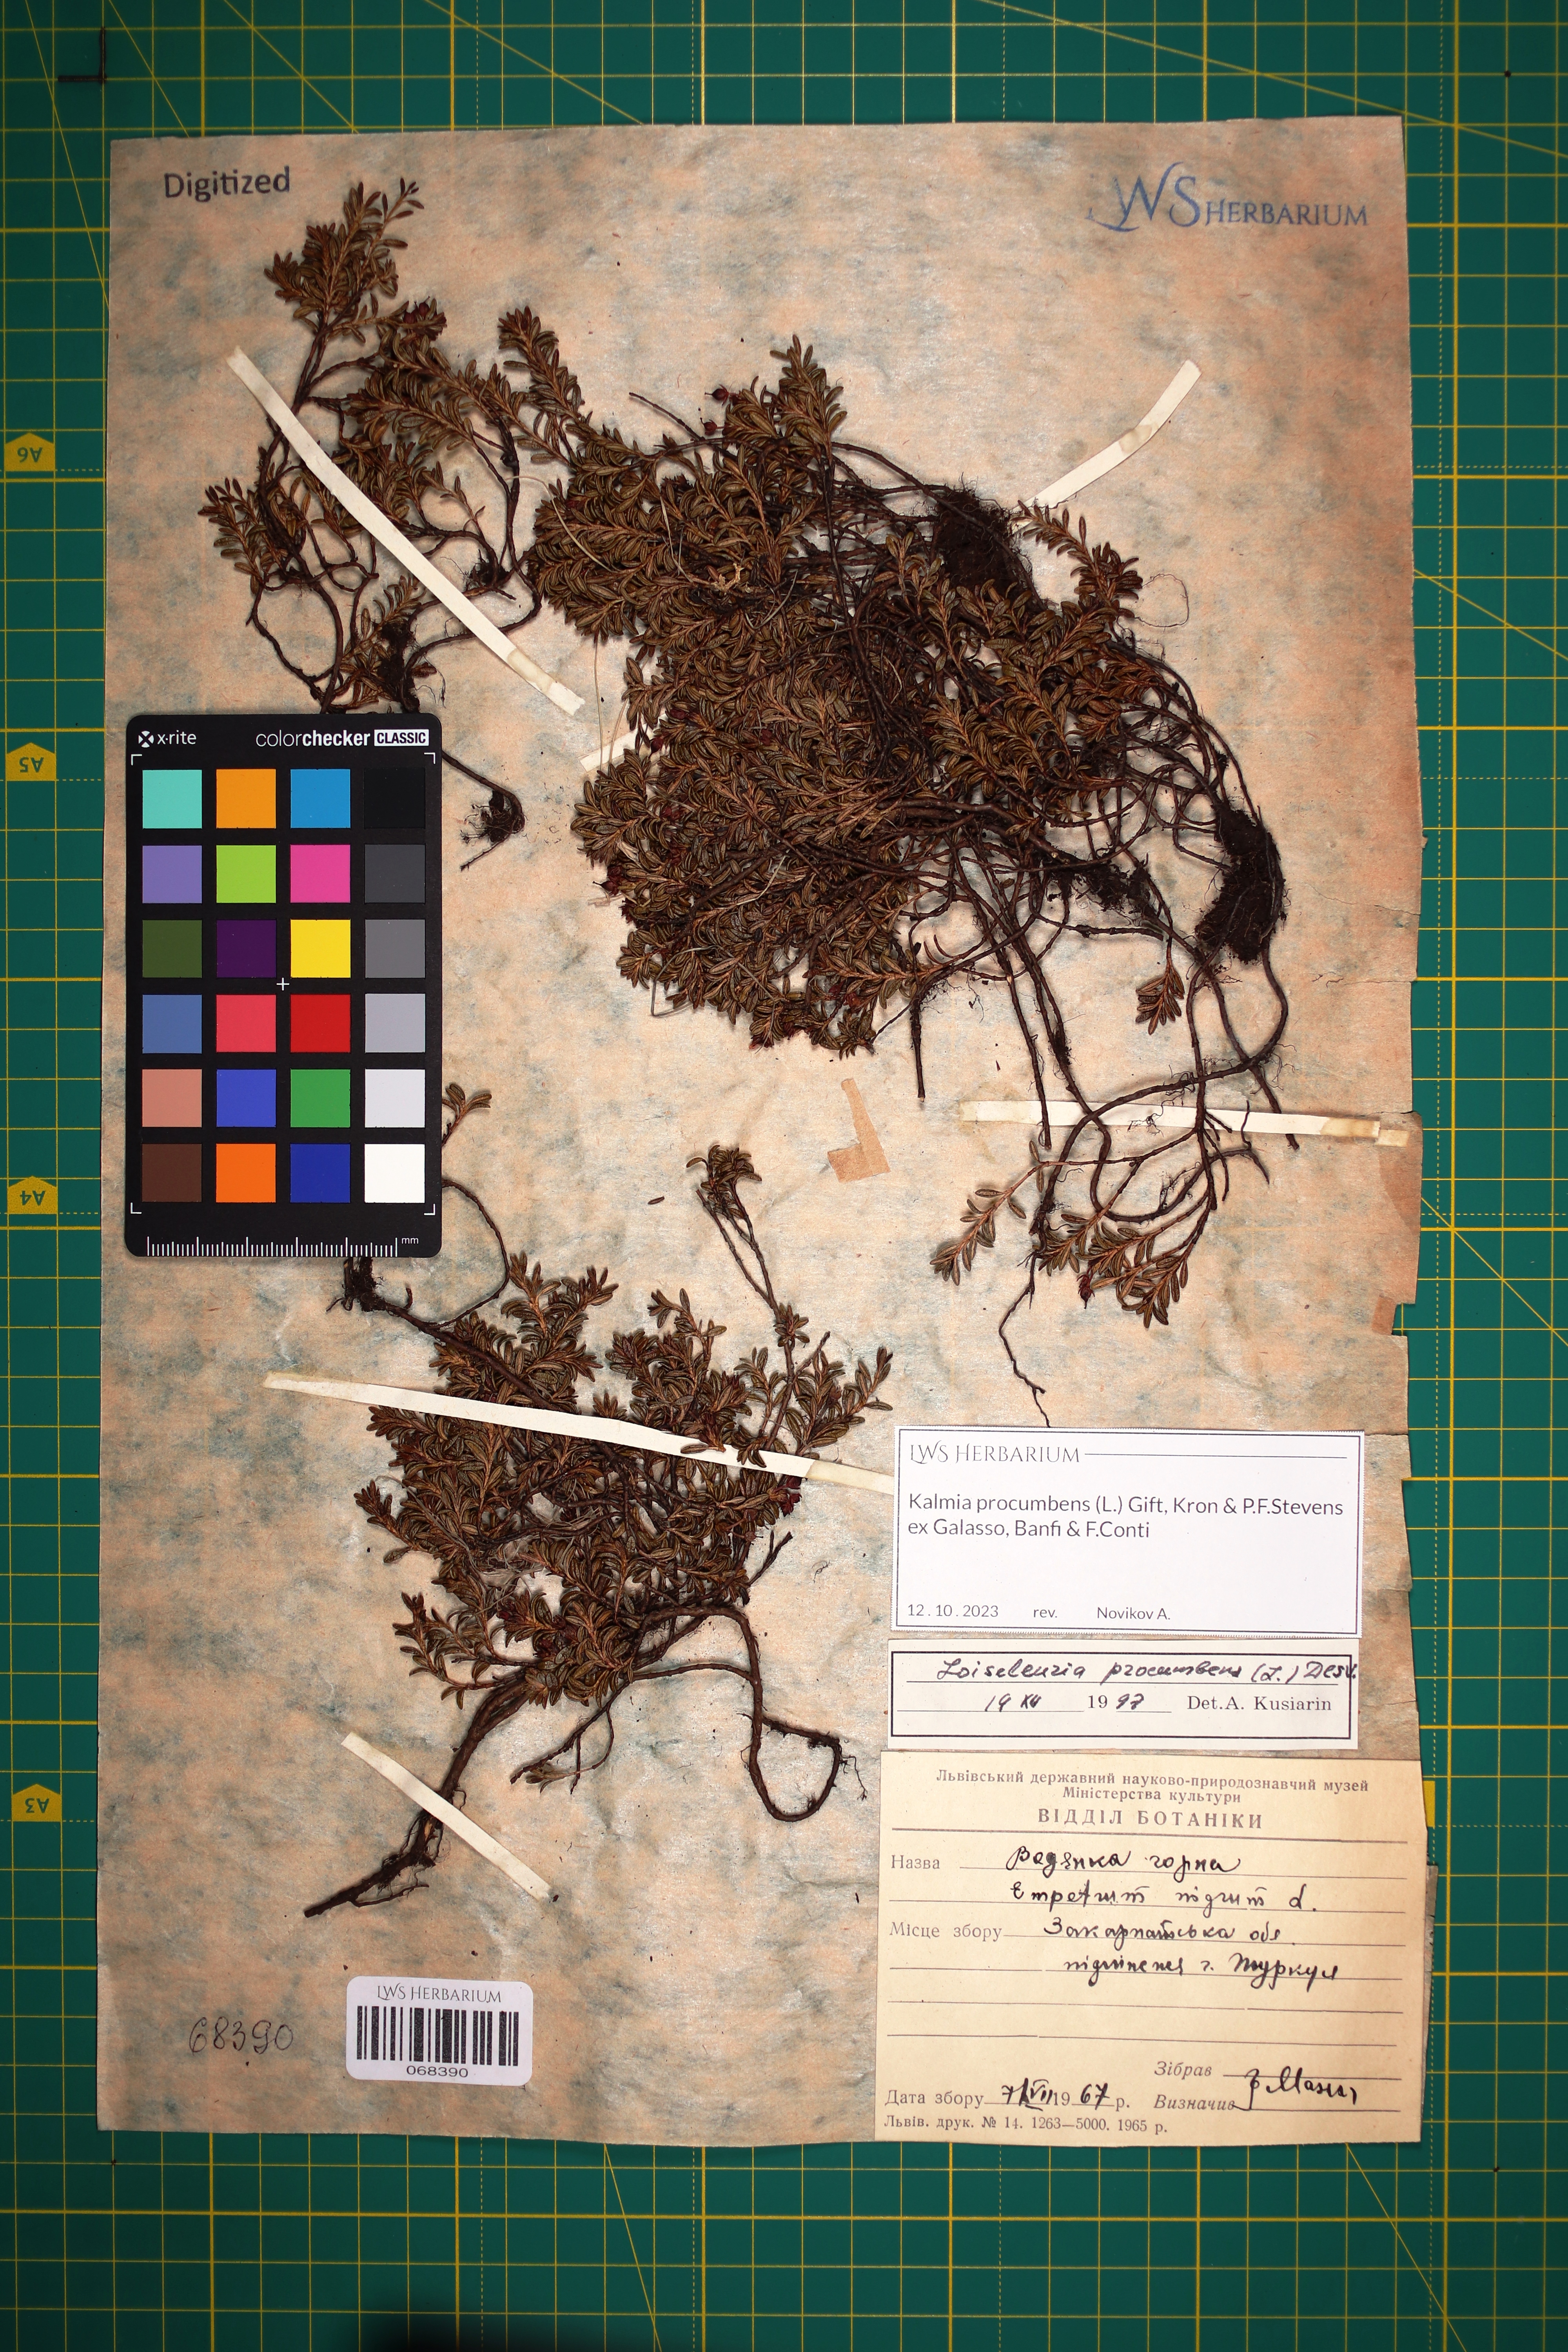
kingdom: Plantae
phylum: Tracheophyta
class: Magnoliopsida
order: Ericales
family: Ericaceae
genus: Kalmia
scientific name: Kalmia procumbens
